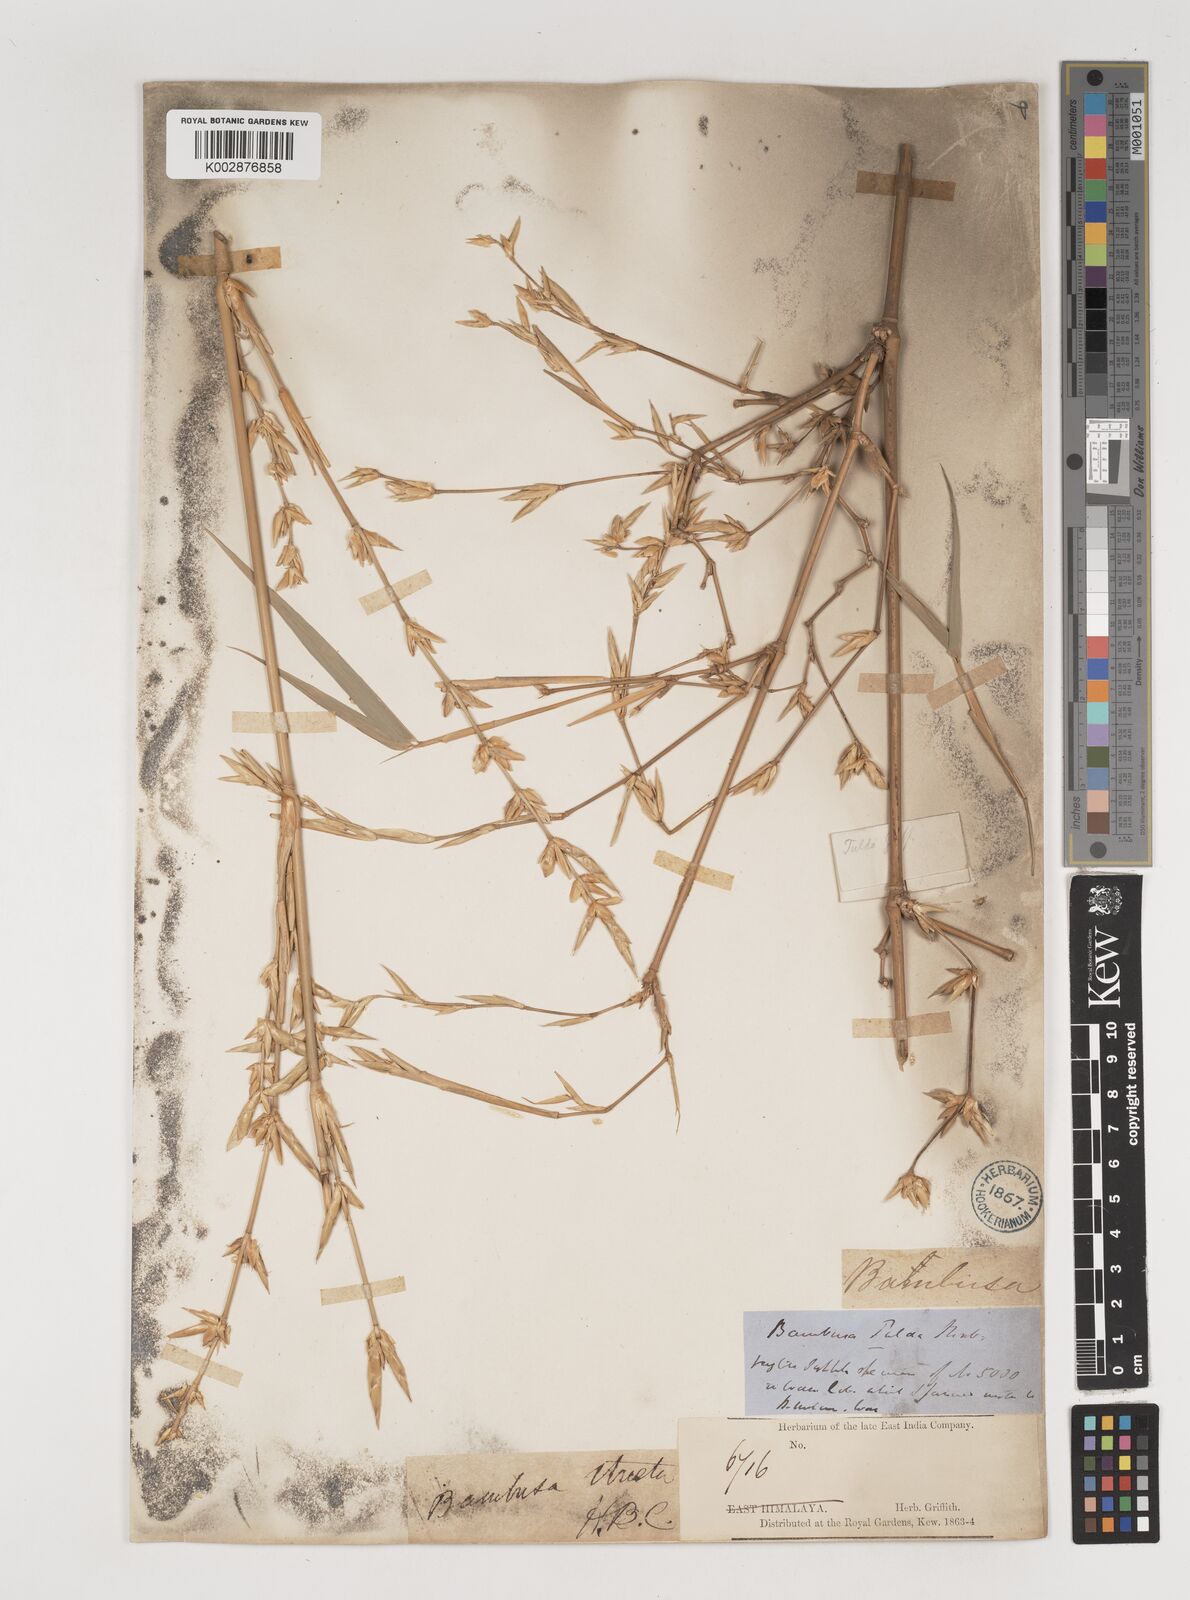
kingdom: Plantae
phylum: Tracheophyta
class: Liliopsida
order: Poales
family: Poaceae
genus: Bambusa
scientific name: Bambusa tulda
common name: Bengal bamboo
